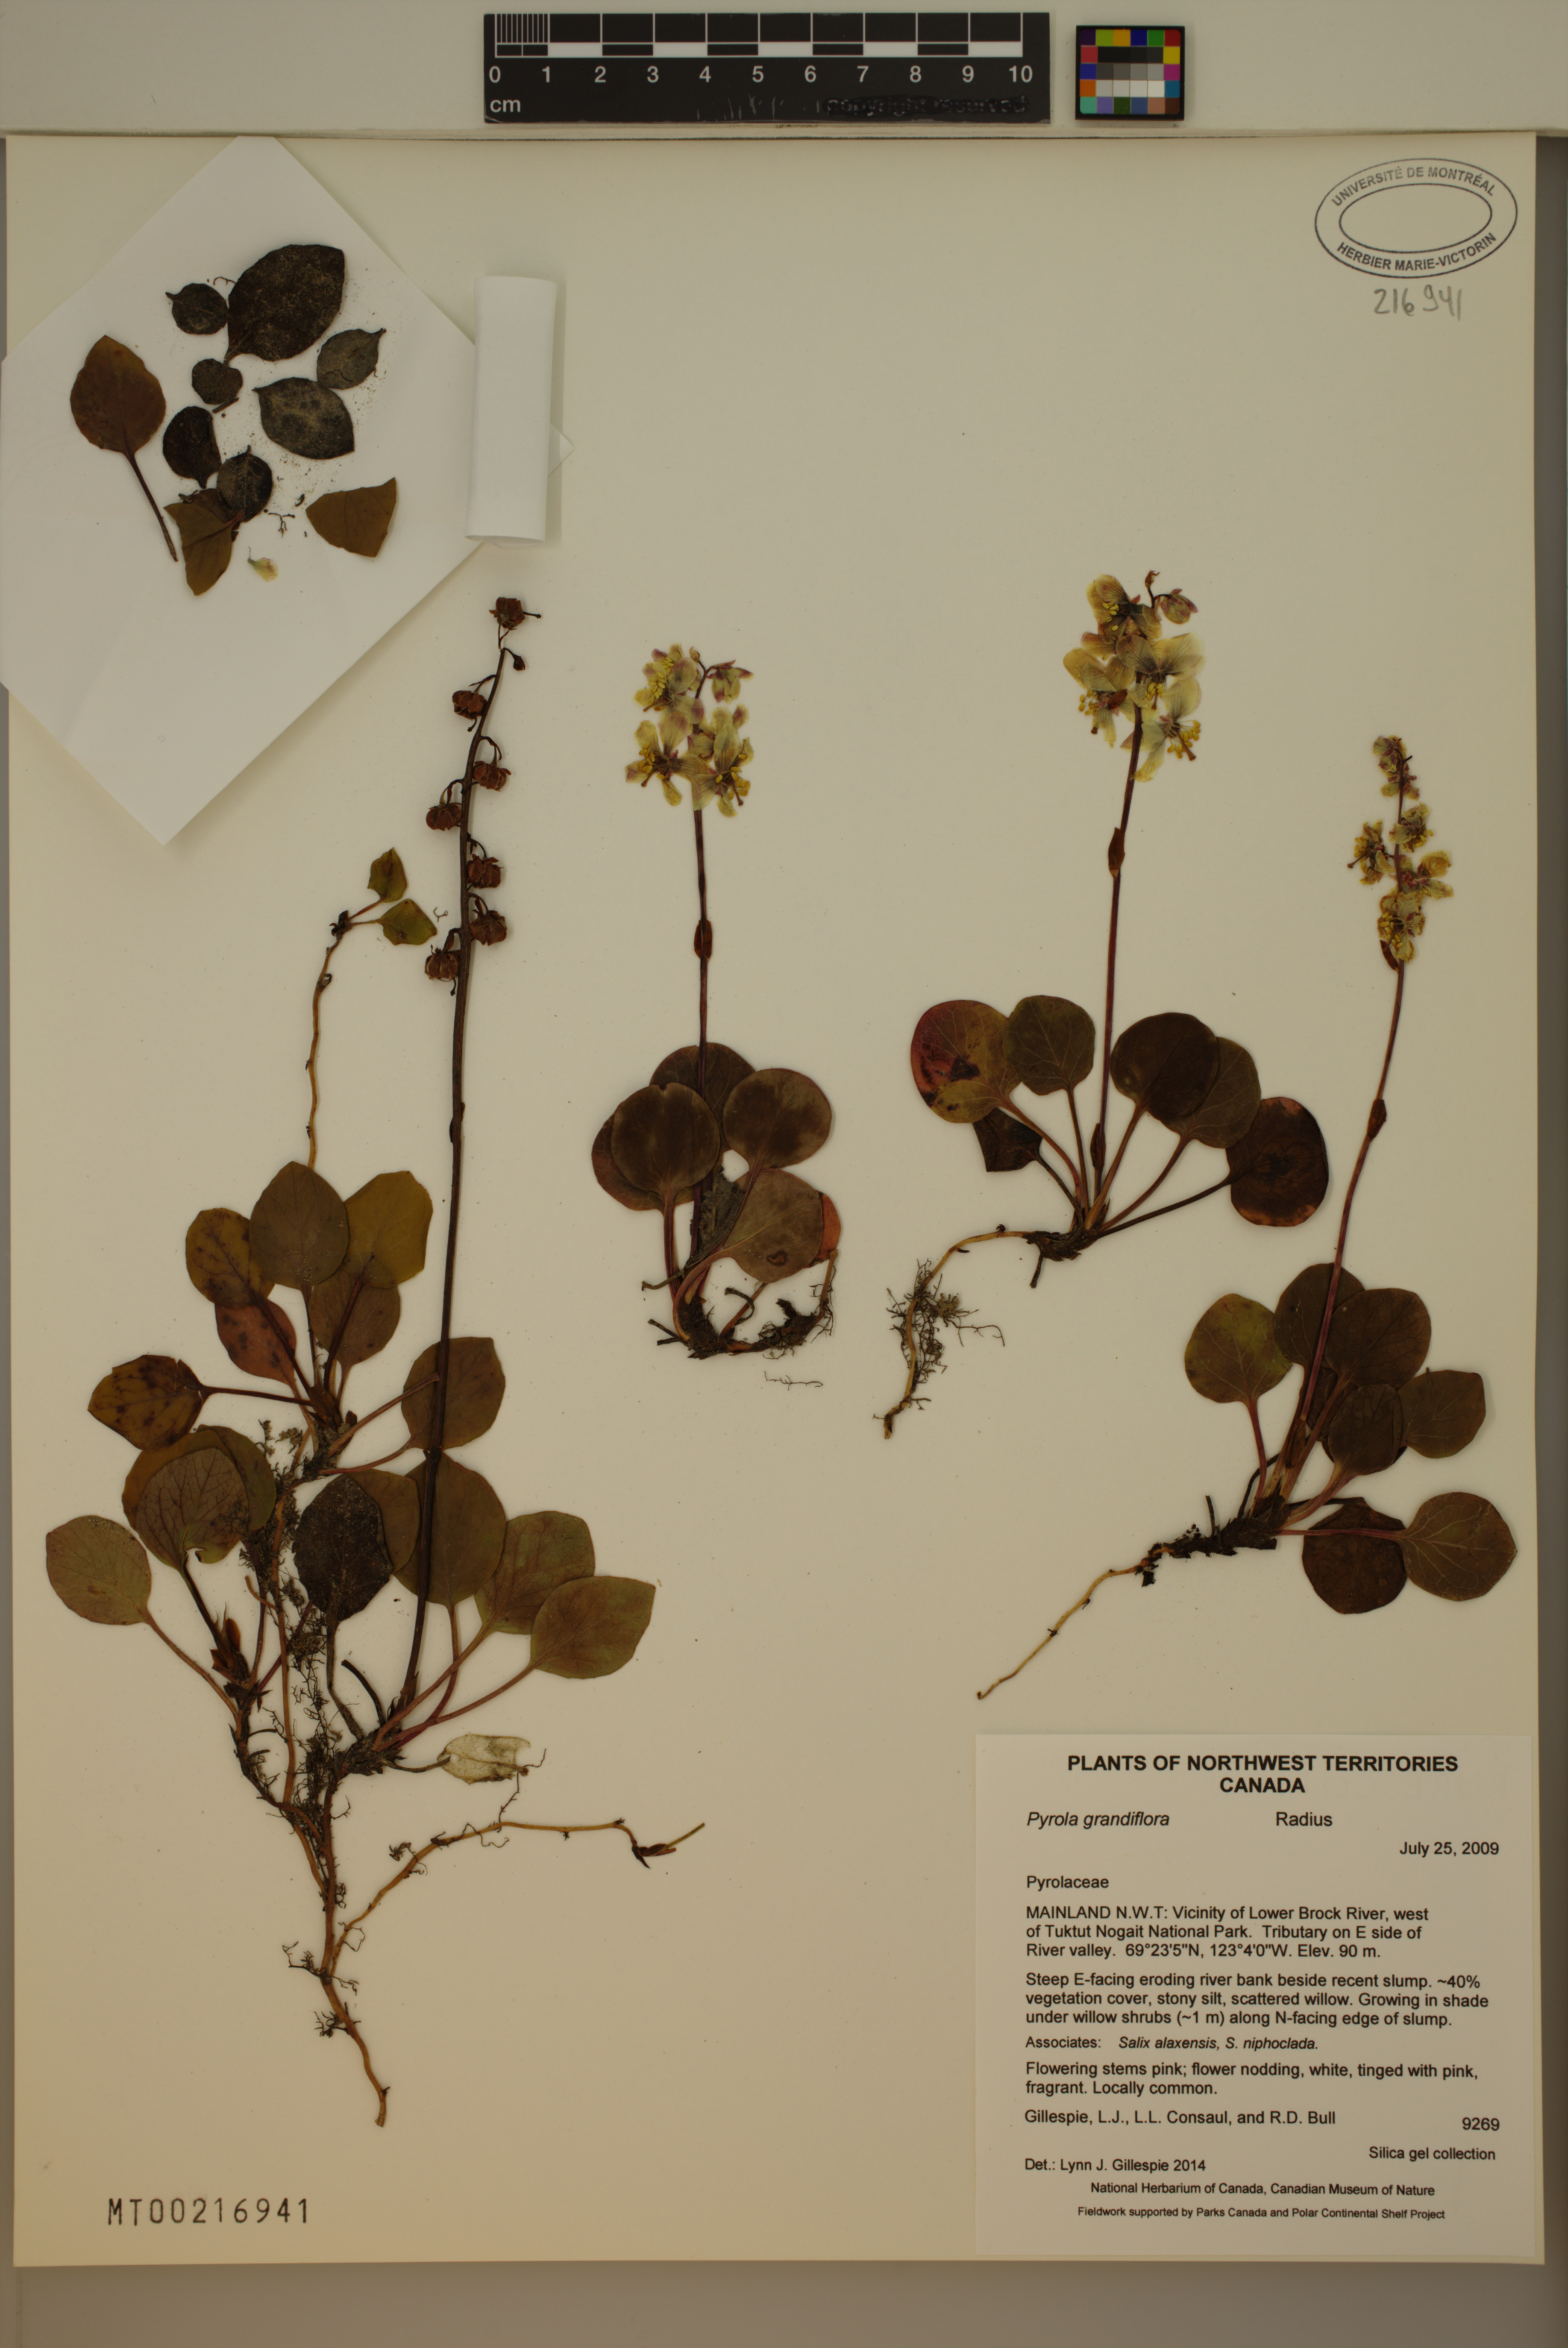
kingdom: Plantae
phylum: Tracheophyta
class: Magnoliopsida
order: Ericales
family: Ericaceae
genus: Pyrola
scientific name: Pyrola grandiflora
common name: Arctic pyrola
